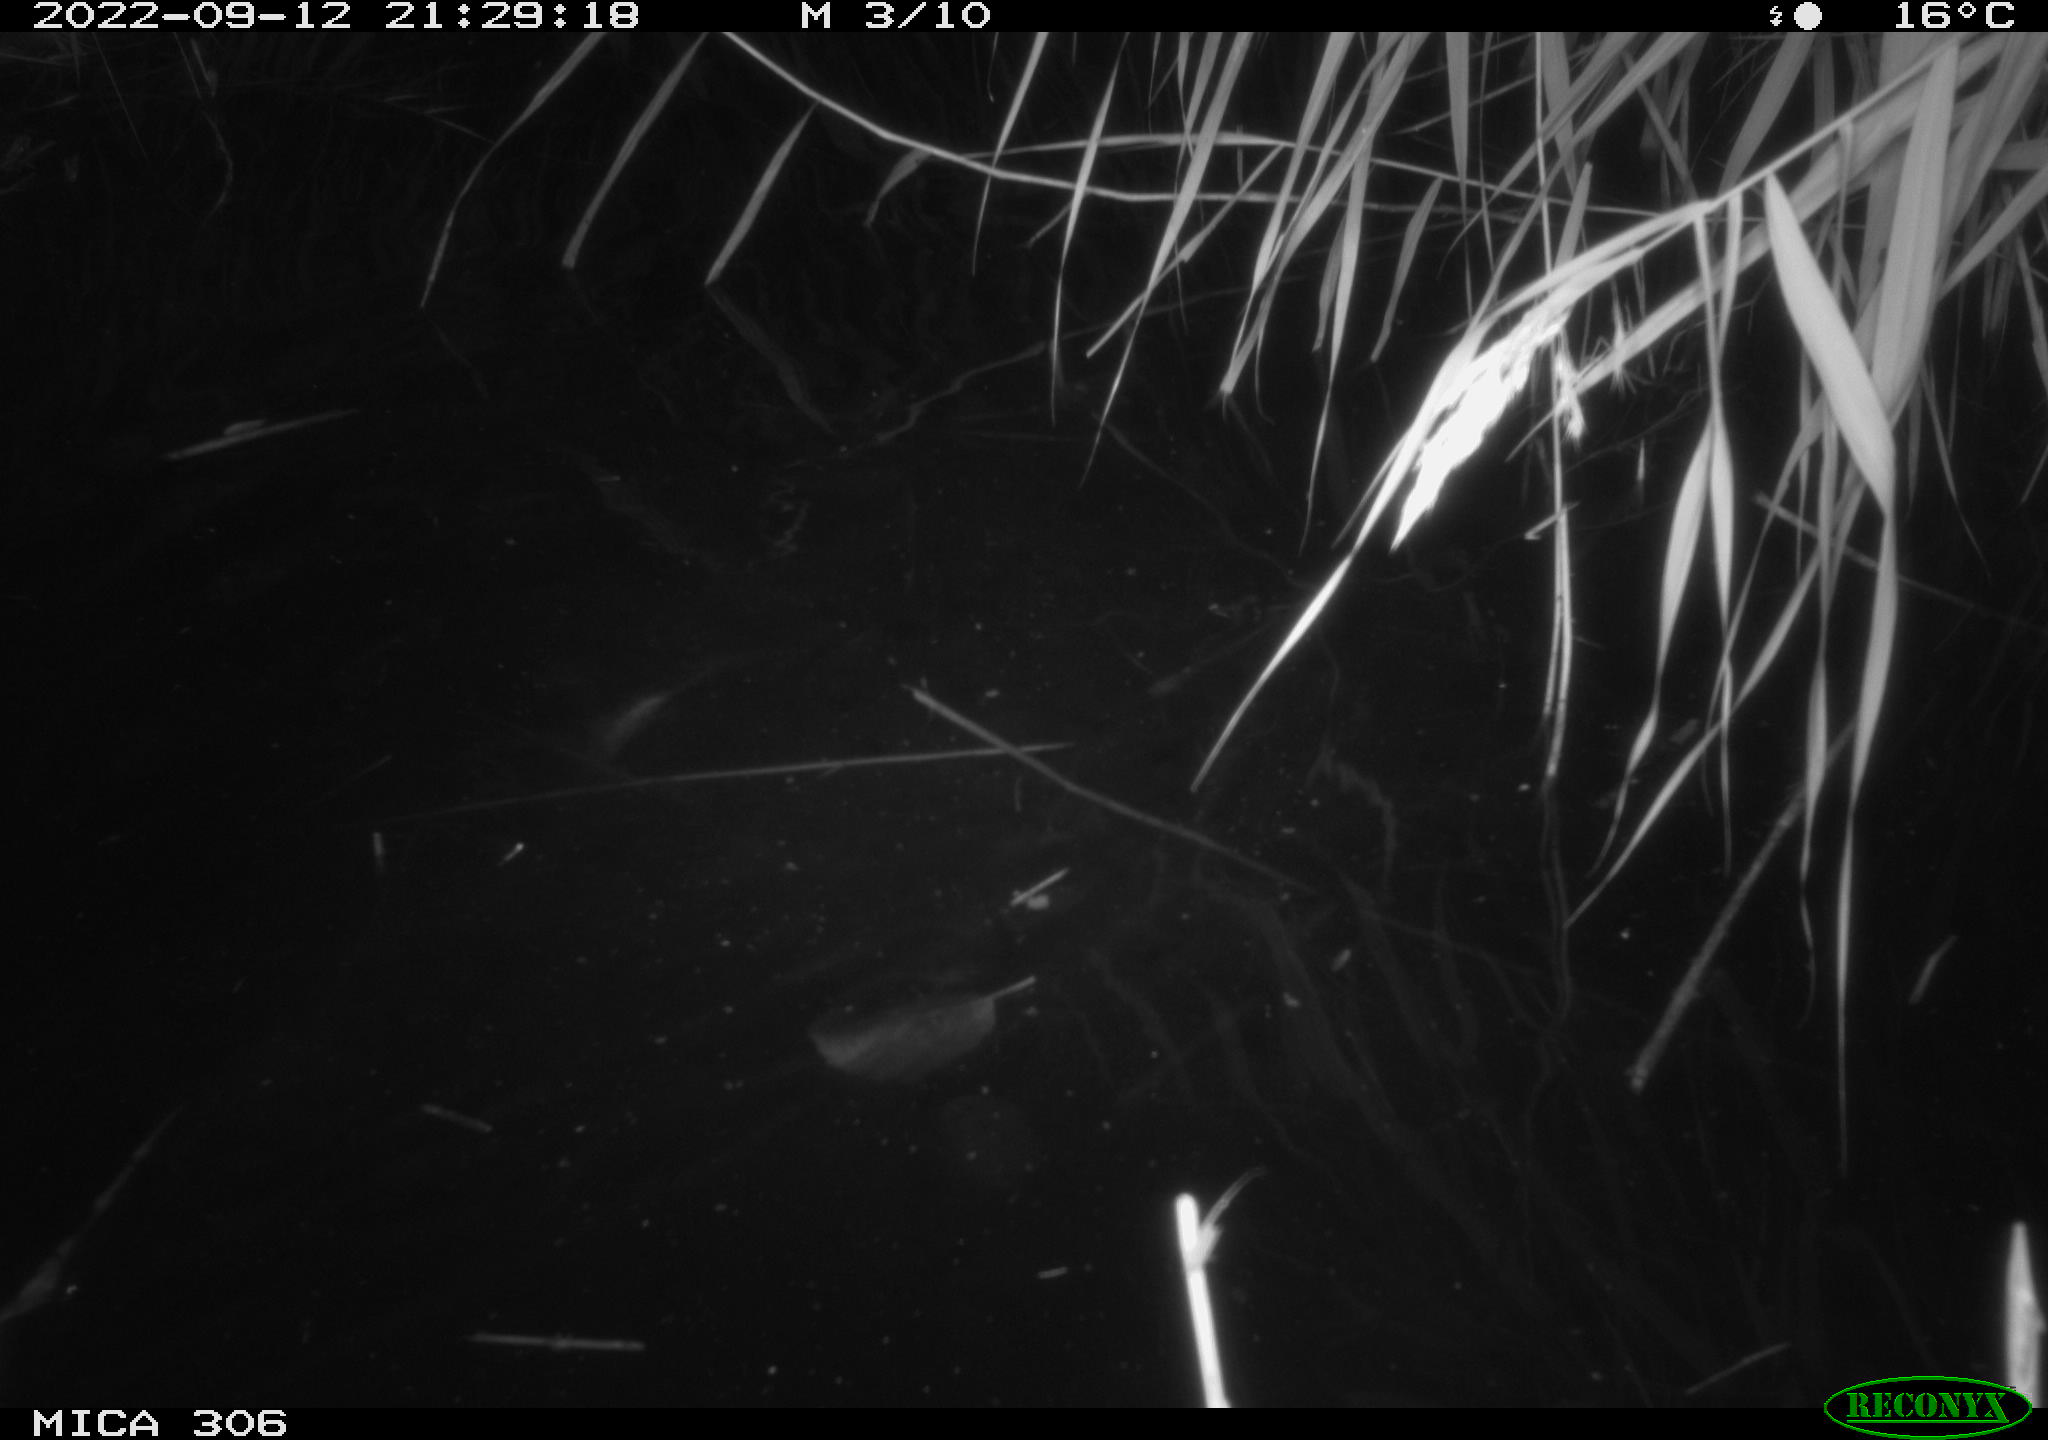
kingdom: Animalia
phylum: Chordata
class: Mammalia
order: Rodentia
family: Muridae
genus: Rattus
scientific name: Rattus norvegicus
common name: Brown rat
